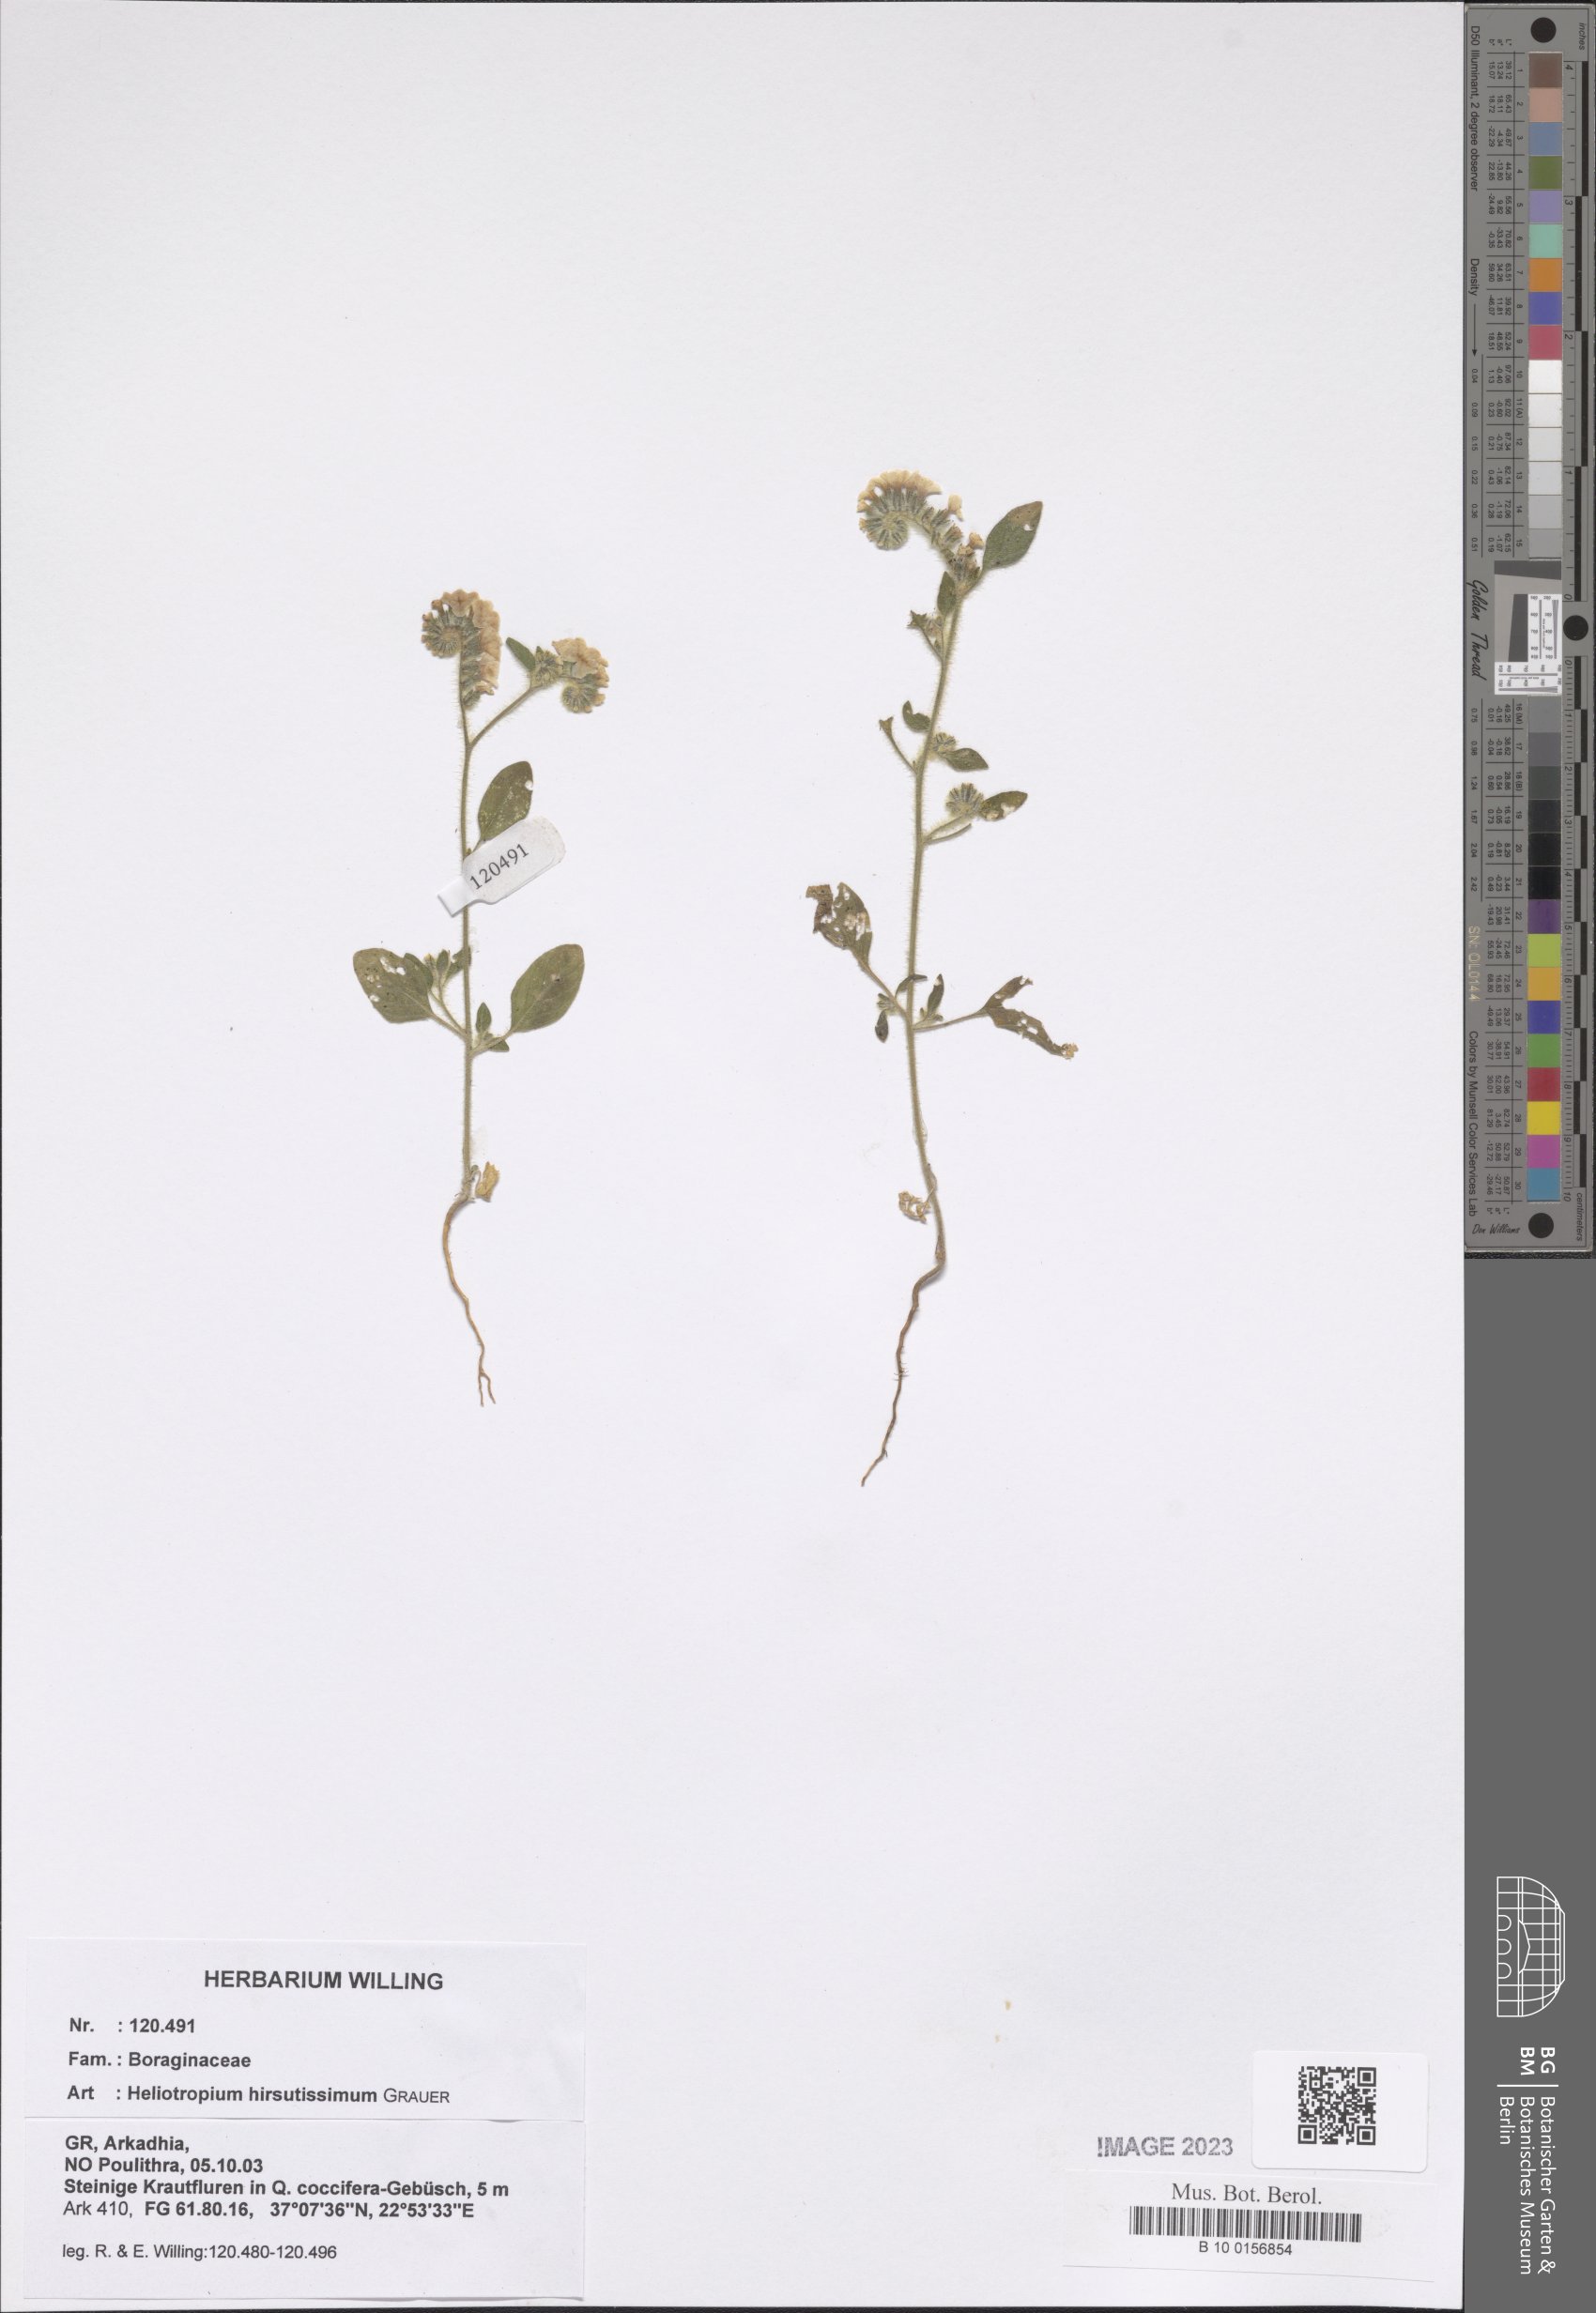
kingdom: Plantae
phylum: Tracheophyta
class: Magnoliopsida
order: Boraginales
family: Heliotropiaceae
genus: Heliotropium
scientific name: Heliotropium hirsutissimum
